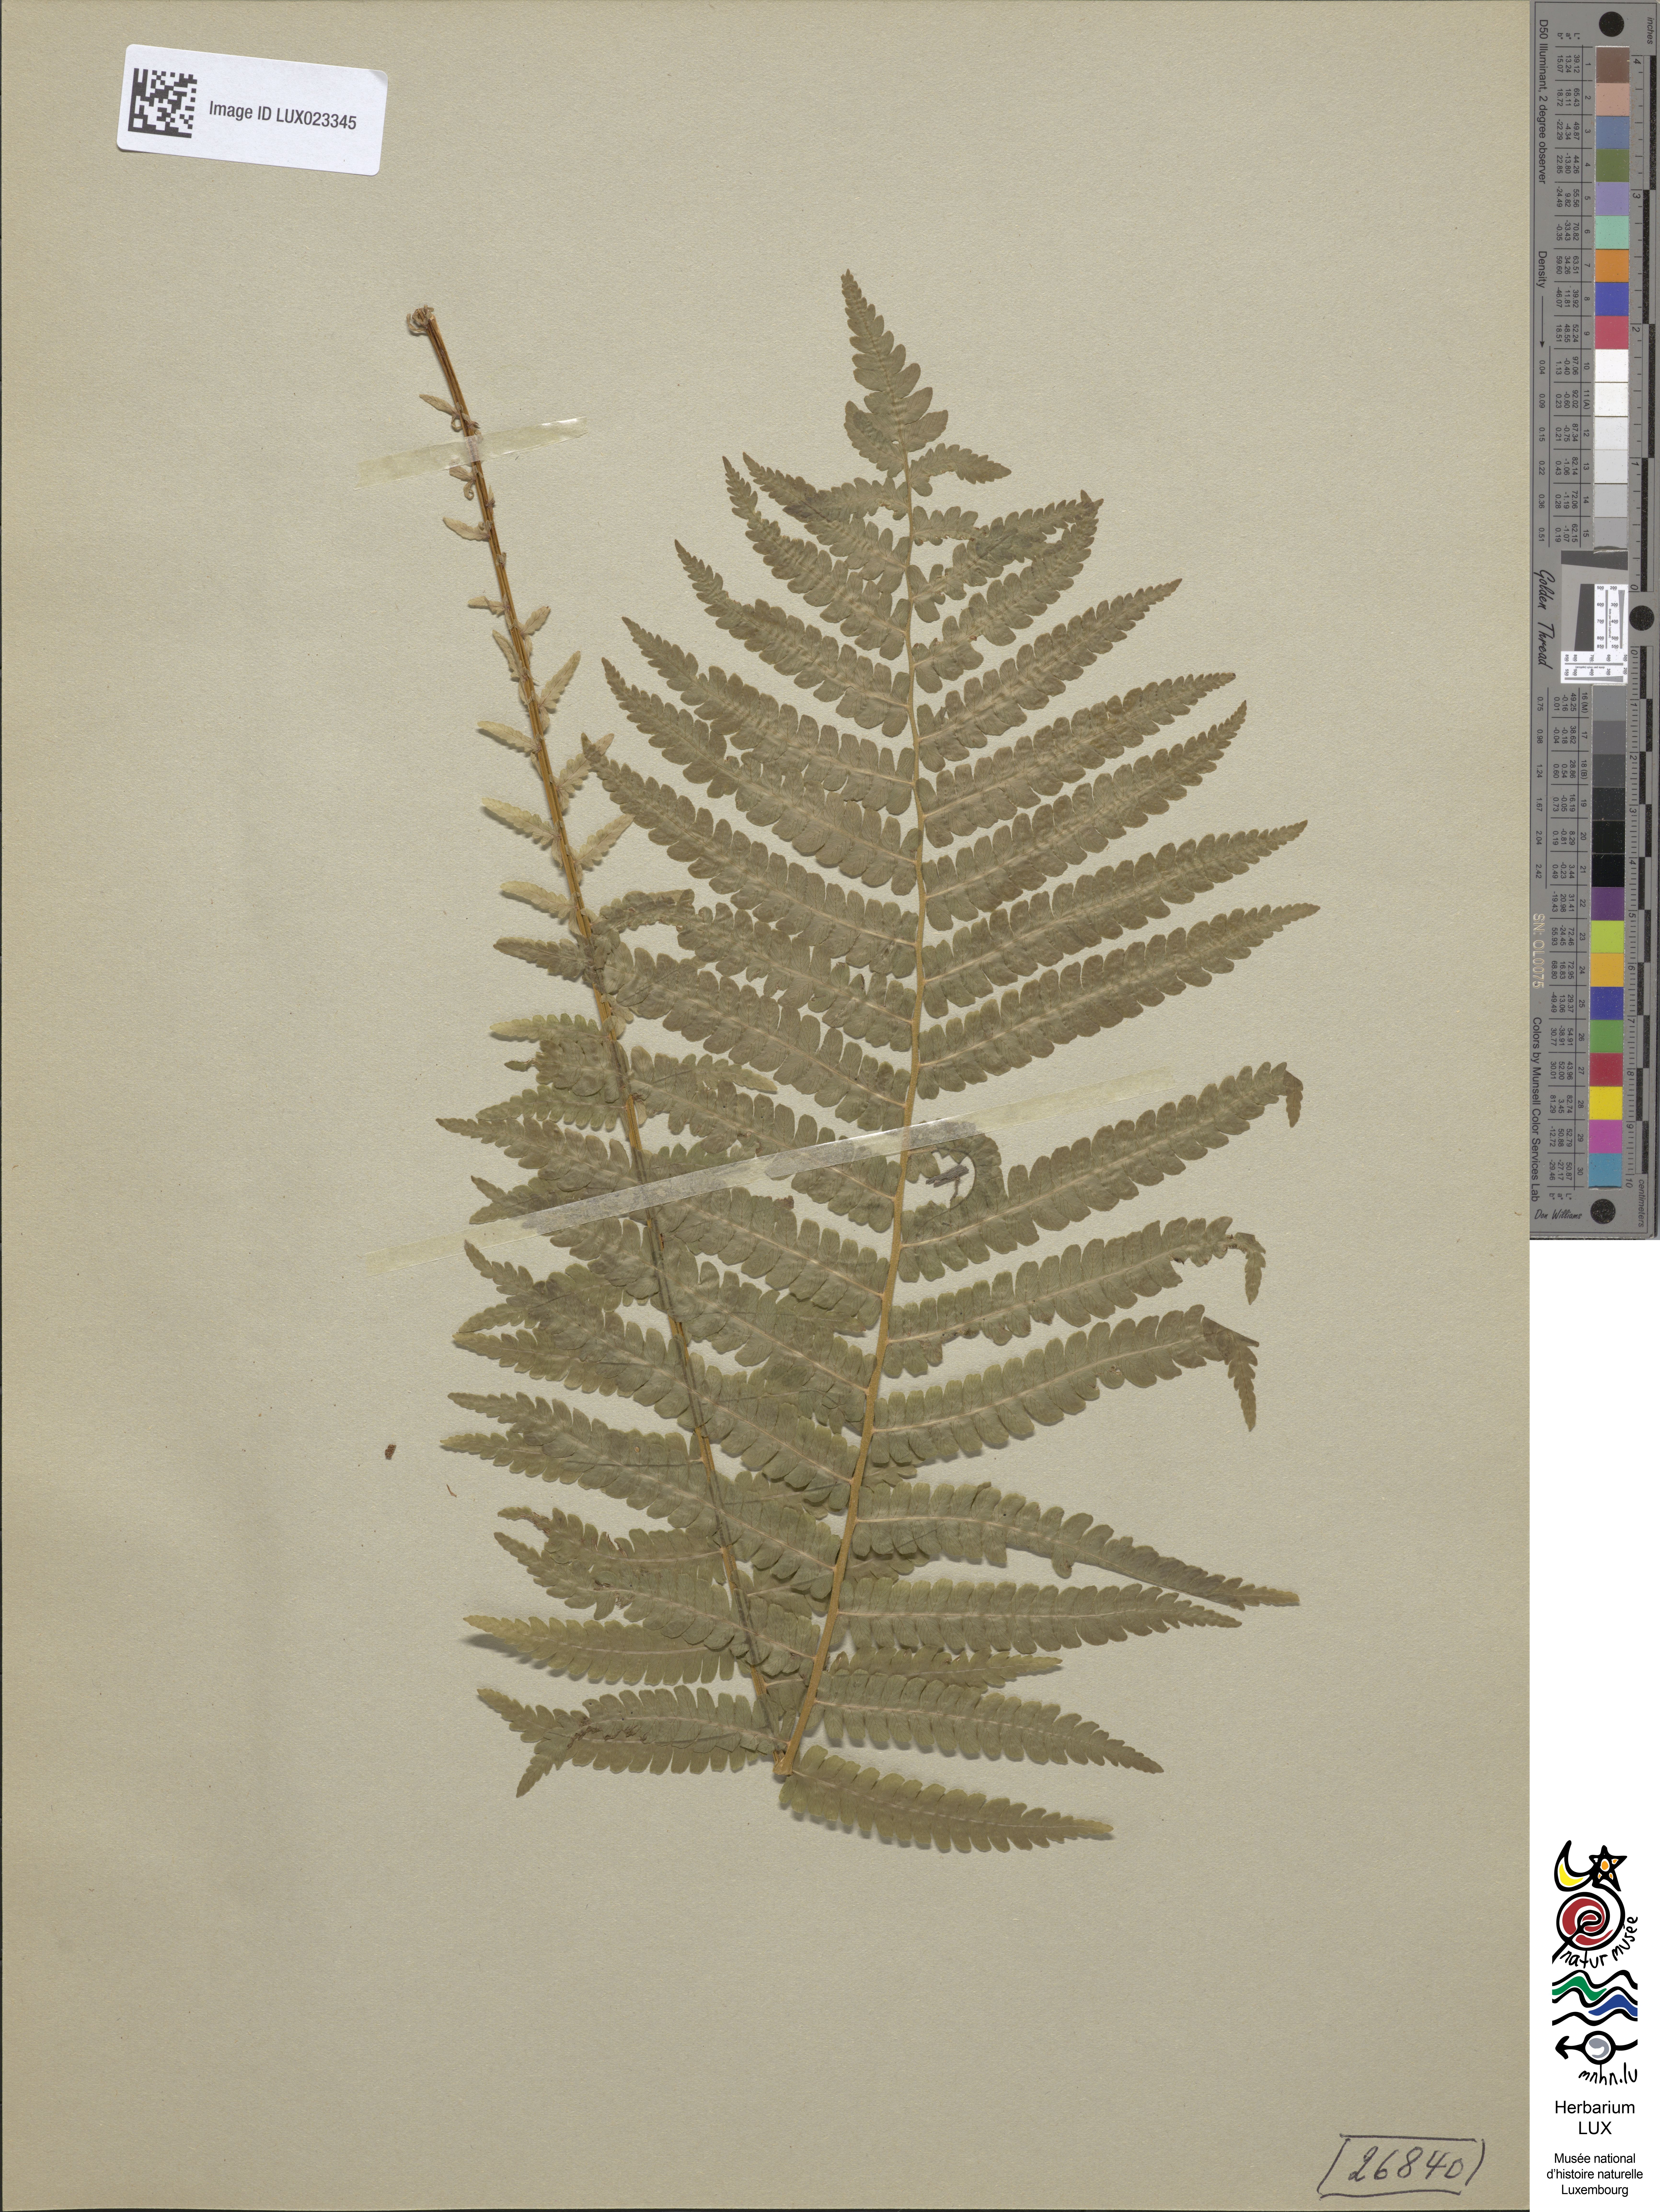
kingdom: Plantae
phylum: Tracheophyta
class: Polypodiopsida
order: Polypodiales
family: Onocleaceae
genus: Matteuccia
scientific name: Matteuccia struthiopteris
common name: Ostrich fern
